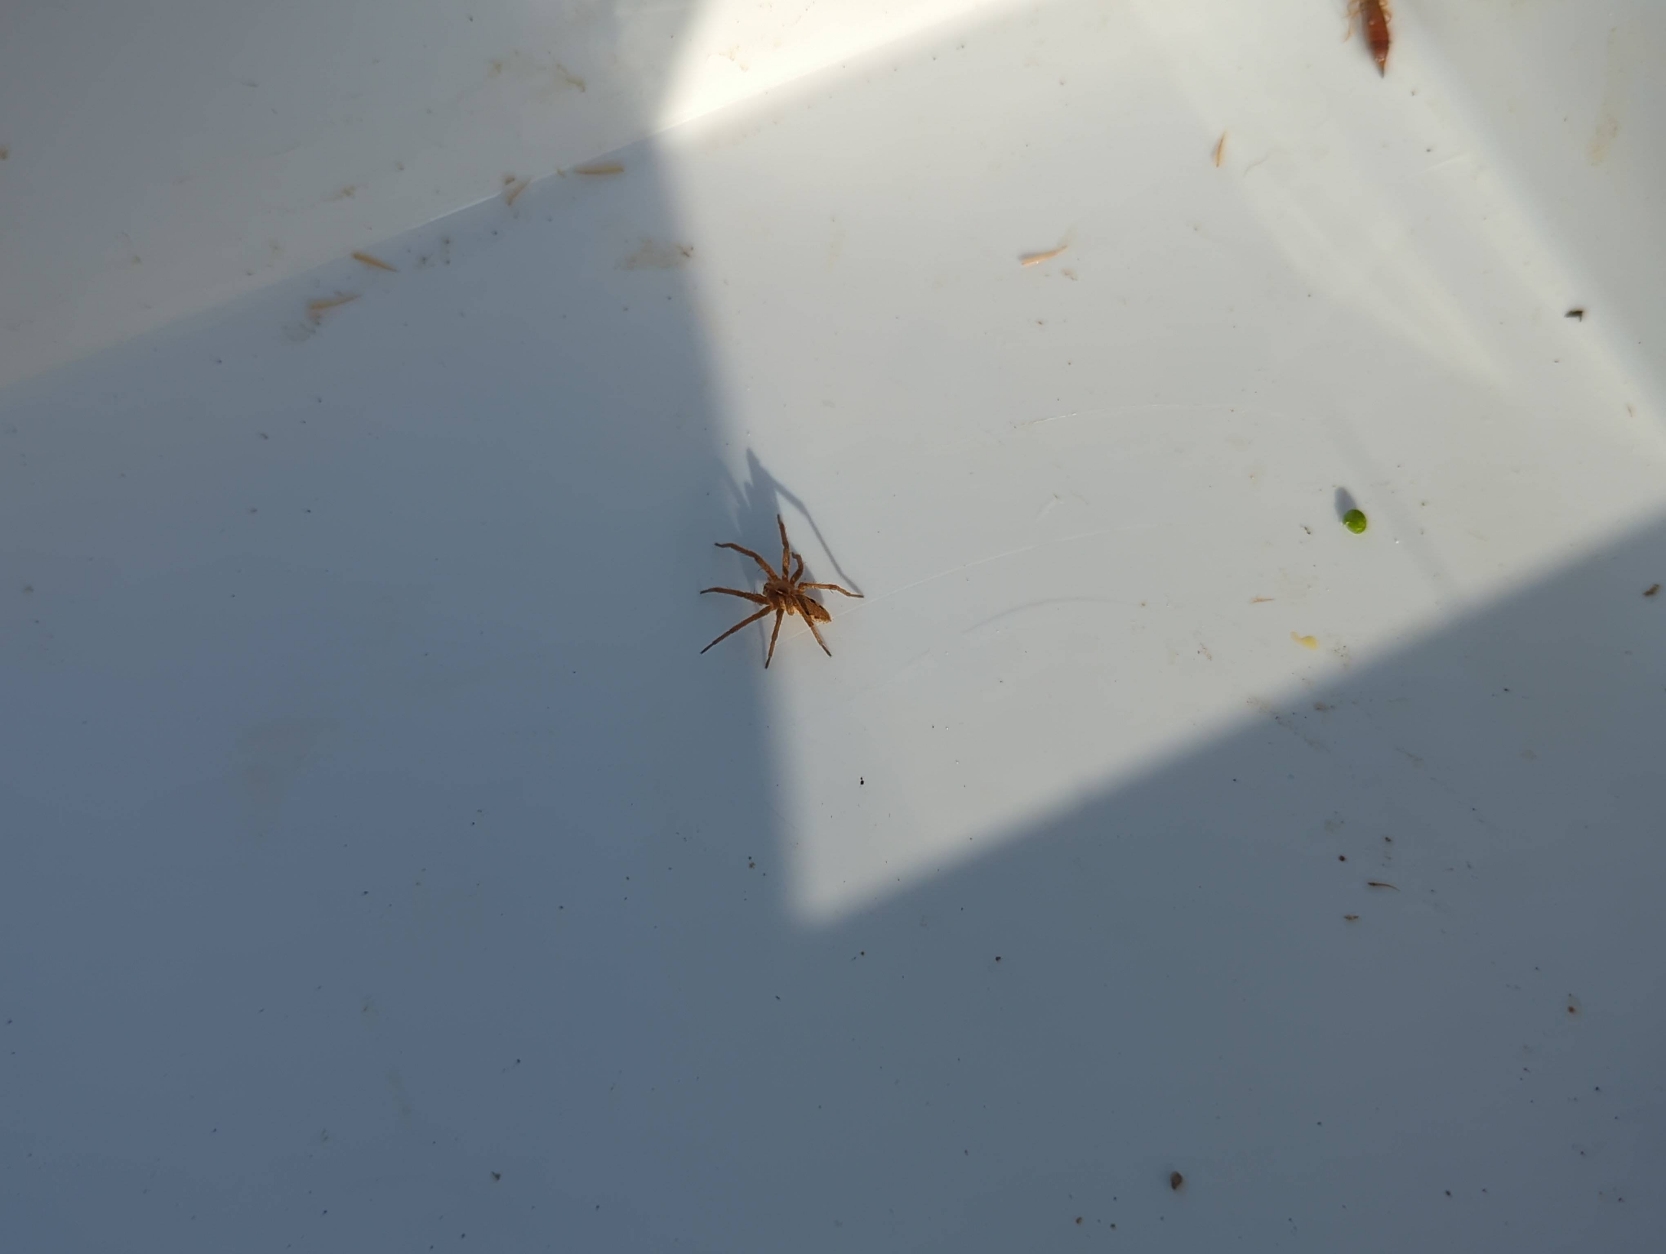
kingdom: Animalia
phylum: Arthropoda
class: Arachnida
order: Araneae
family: Pisauridae
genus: Pisaura
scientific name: Pisaura mirabilis
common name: Almindelig rovedderkop
